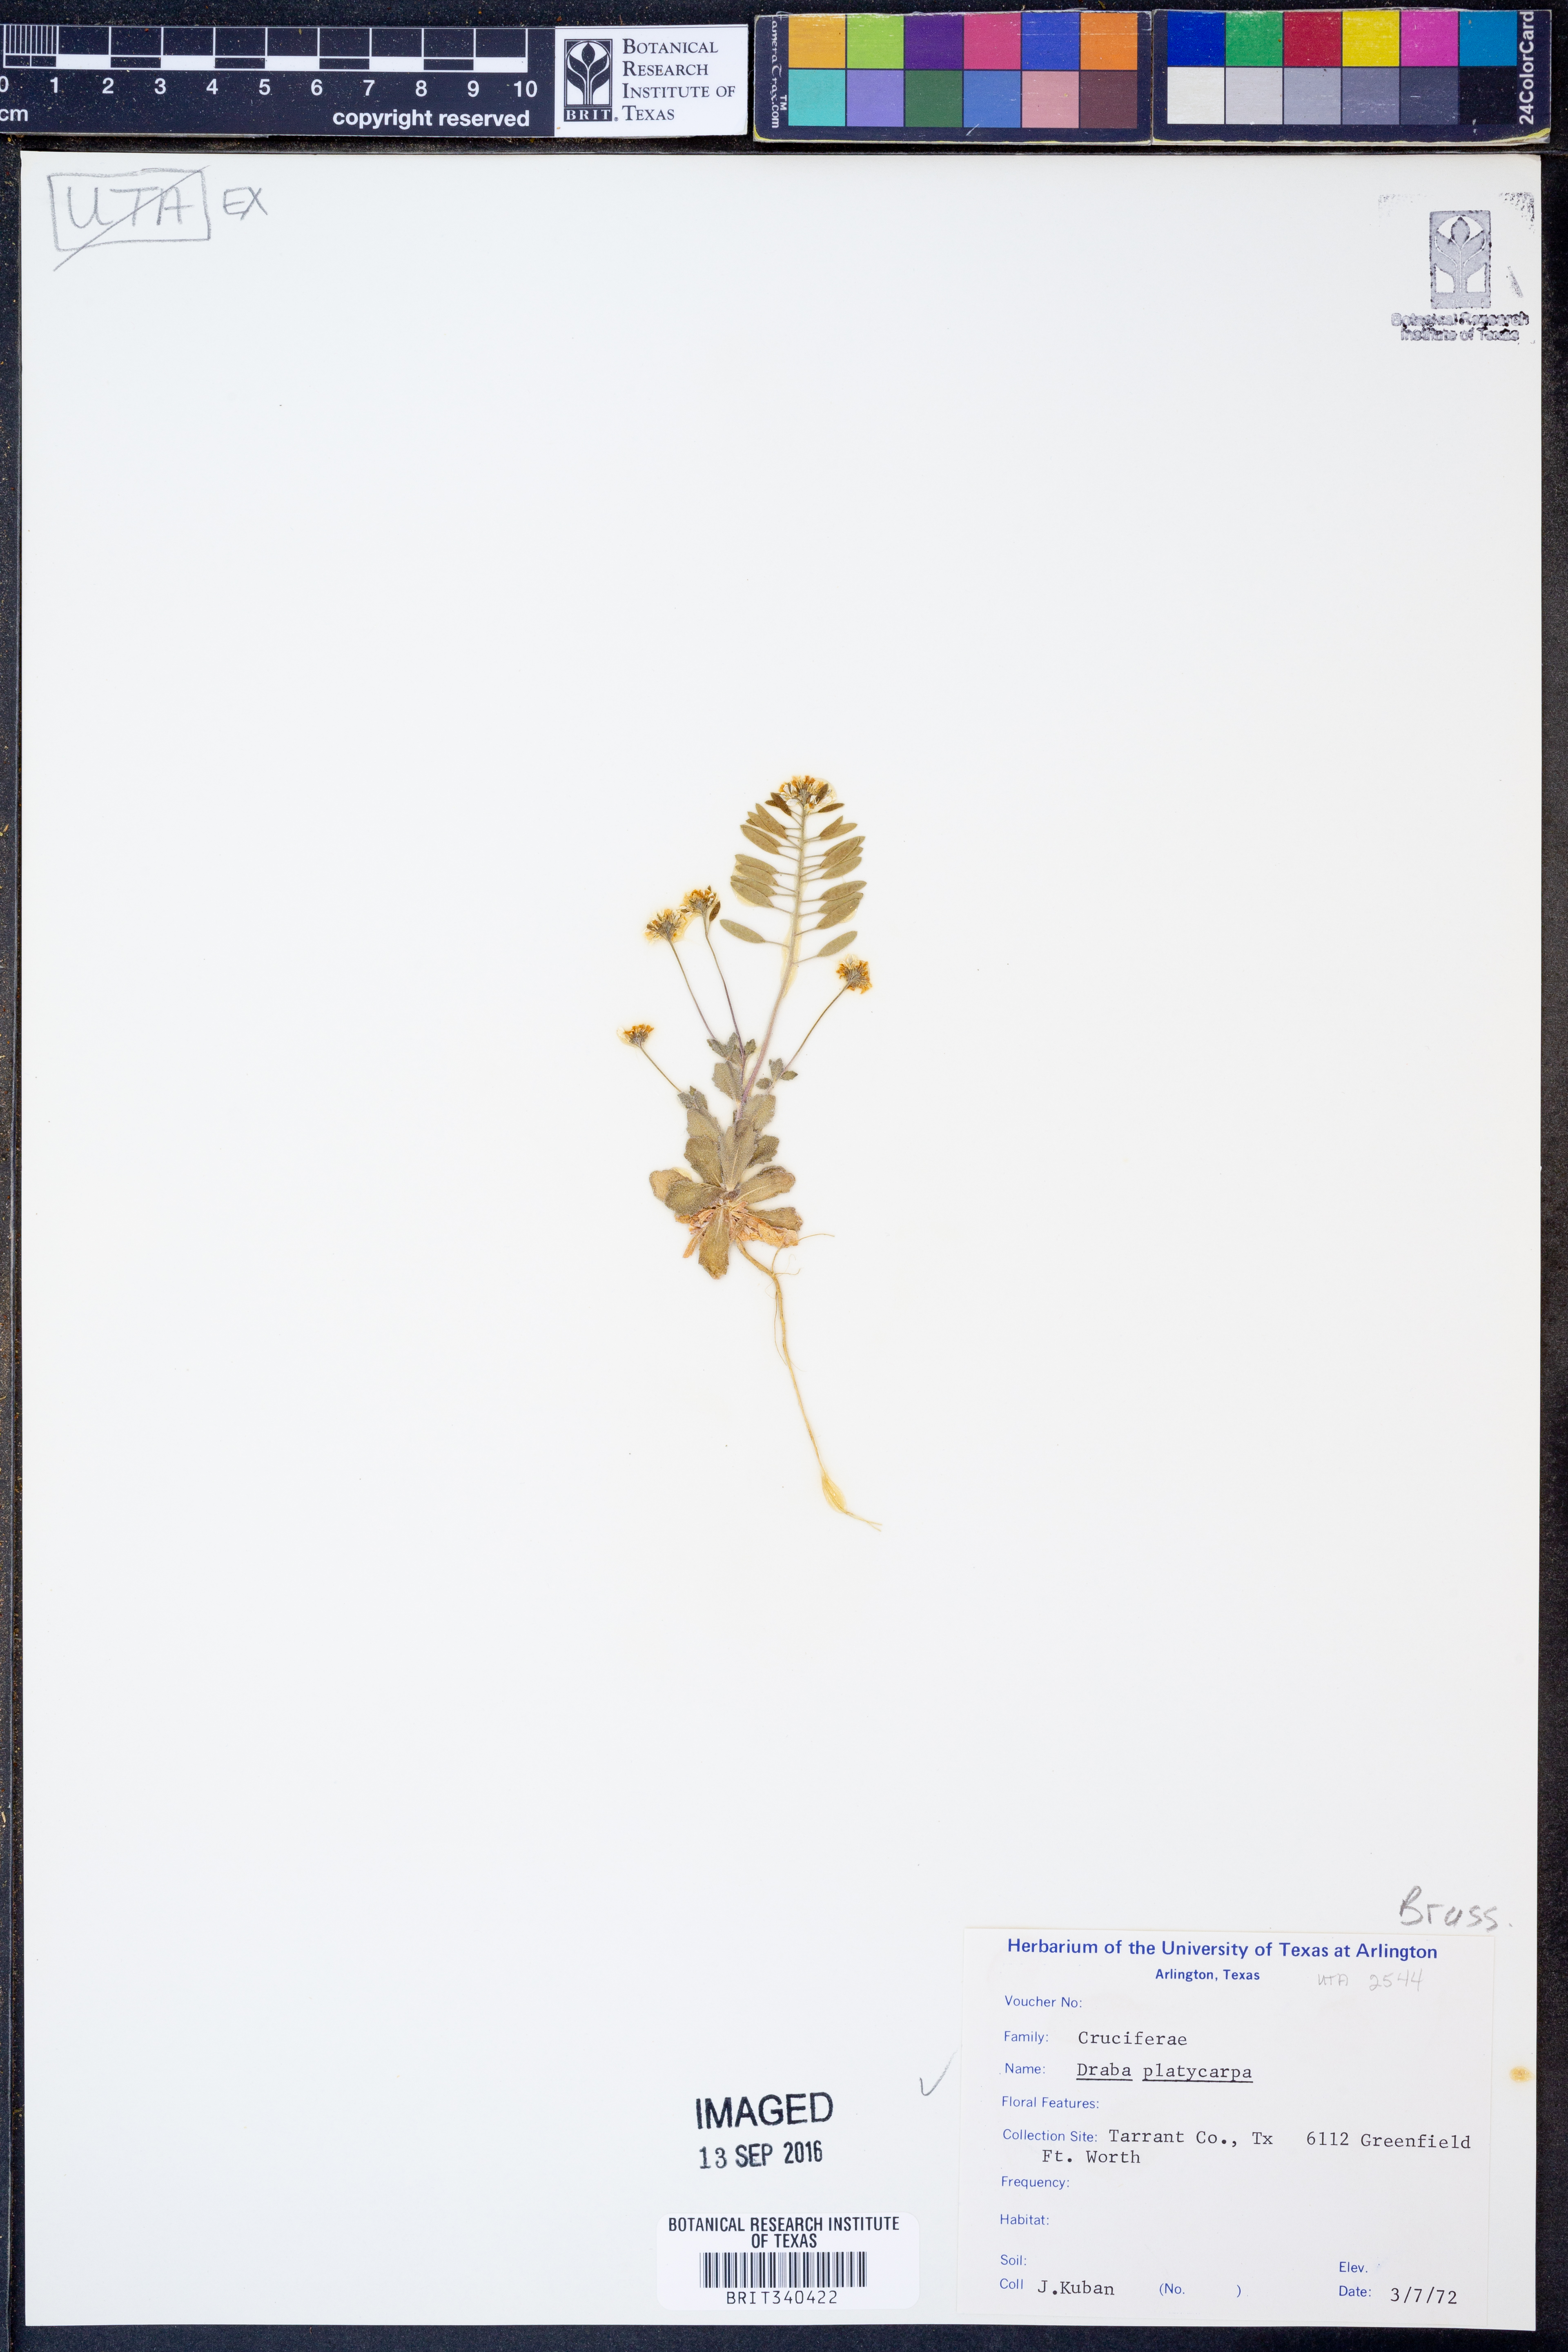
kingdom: Plantae
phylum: Tracheophyta
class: Magnoliopsida
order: Brassicales
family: Brassicaceae
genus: Tomostima
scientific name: Tomostima platycarpa
